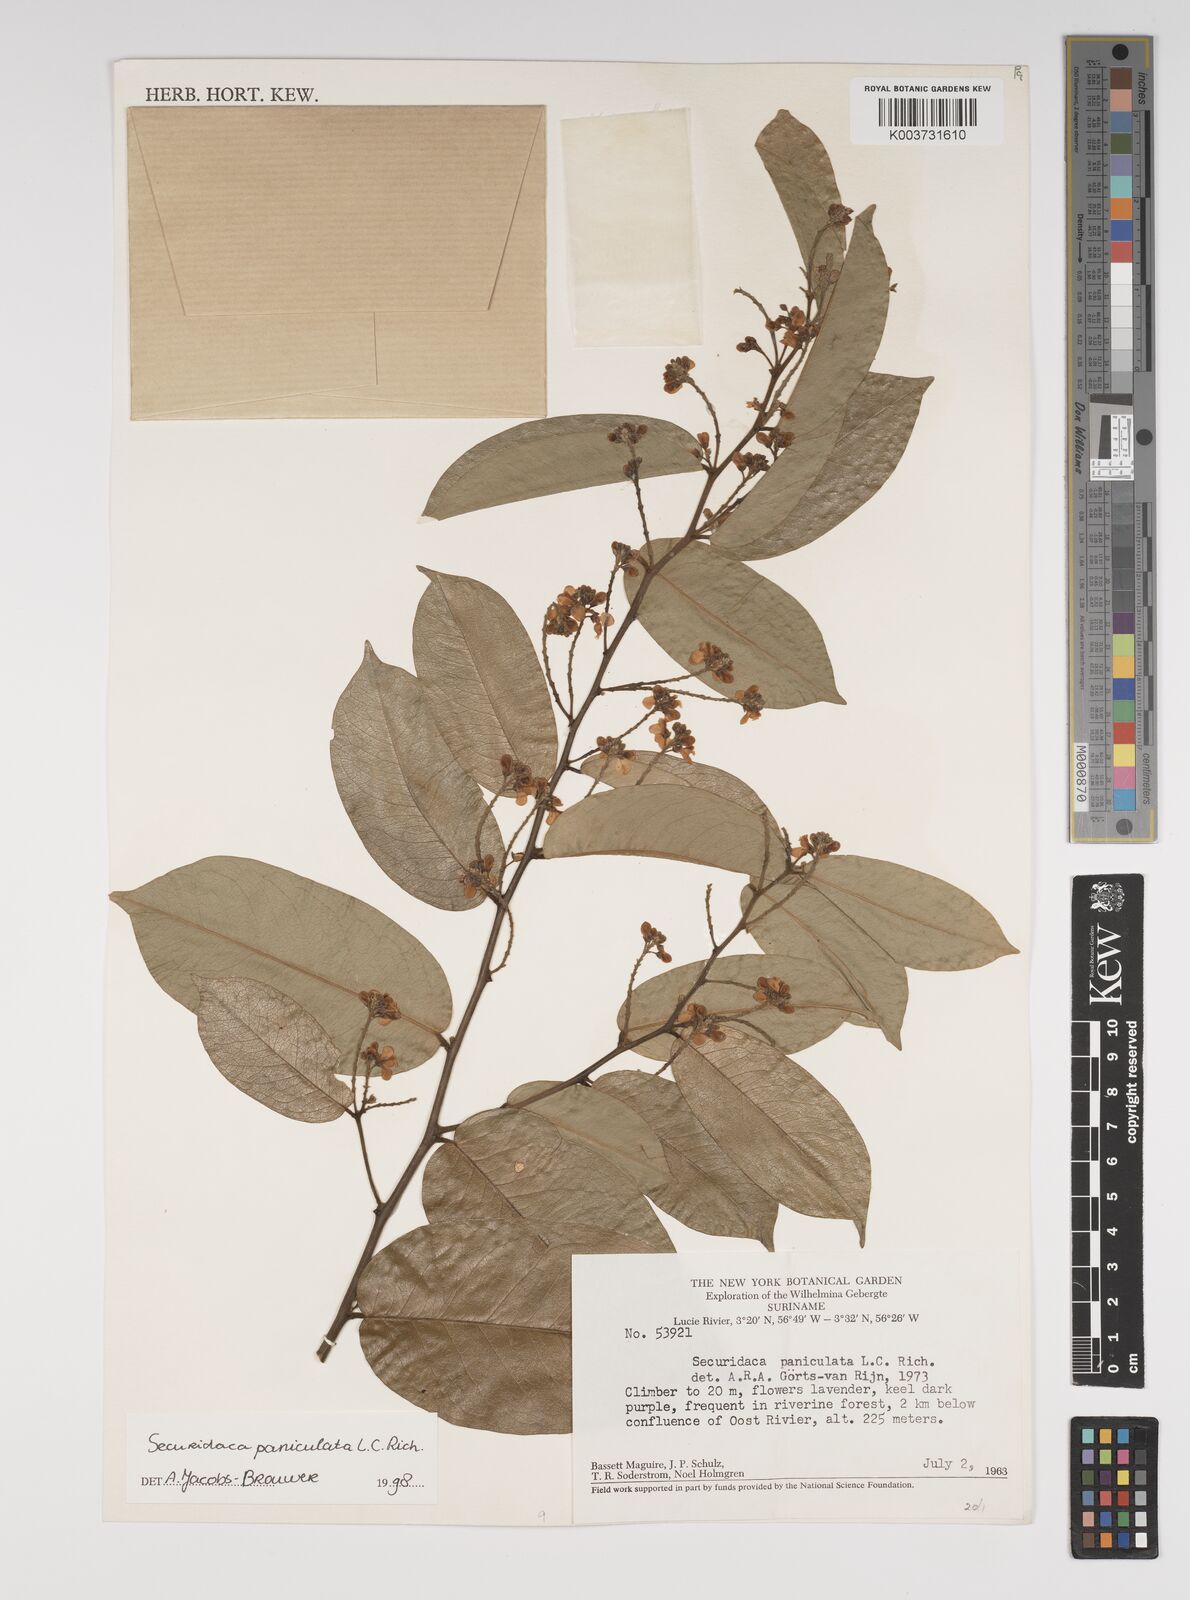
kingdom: Plantae
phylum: Tracheophyta
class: Magnoliopsida
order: Fabales
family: Polygalaceae
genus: Securidaca
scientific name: Securidaca paniculata
